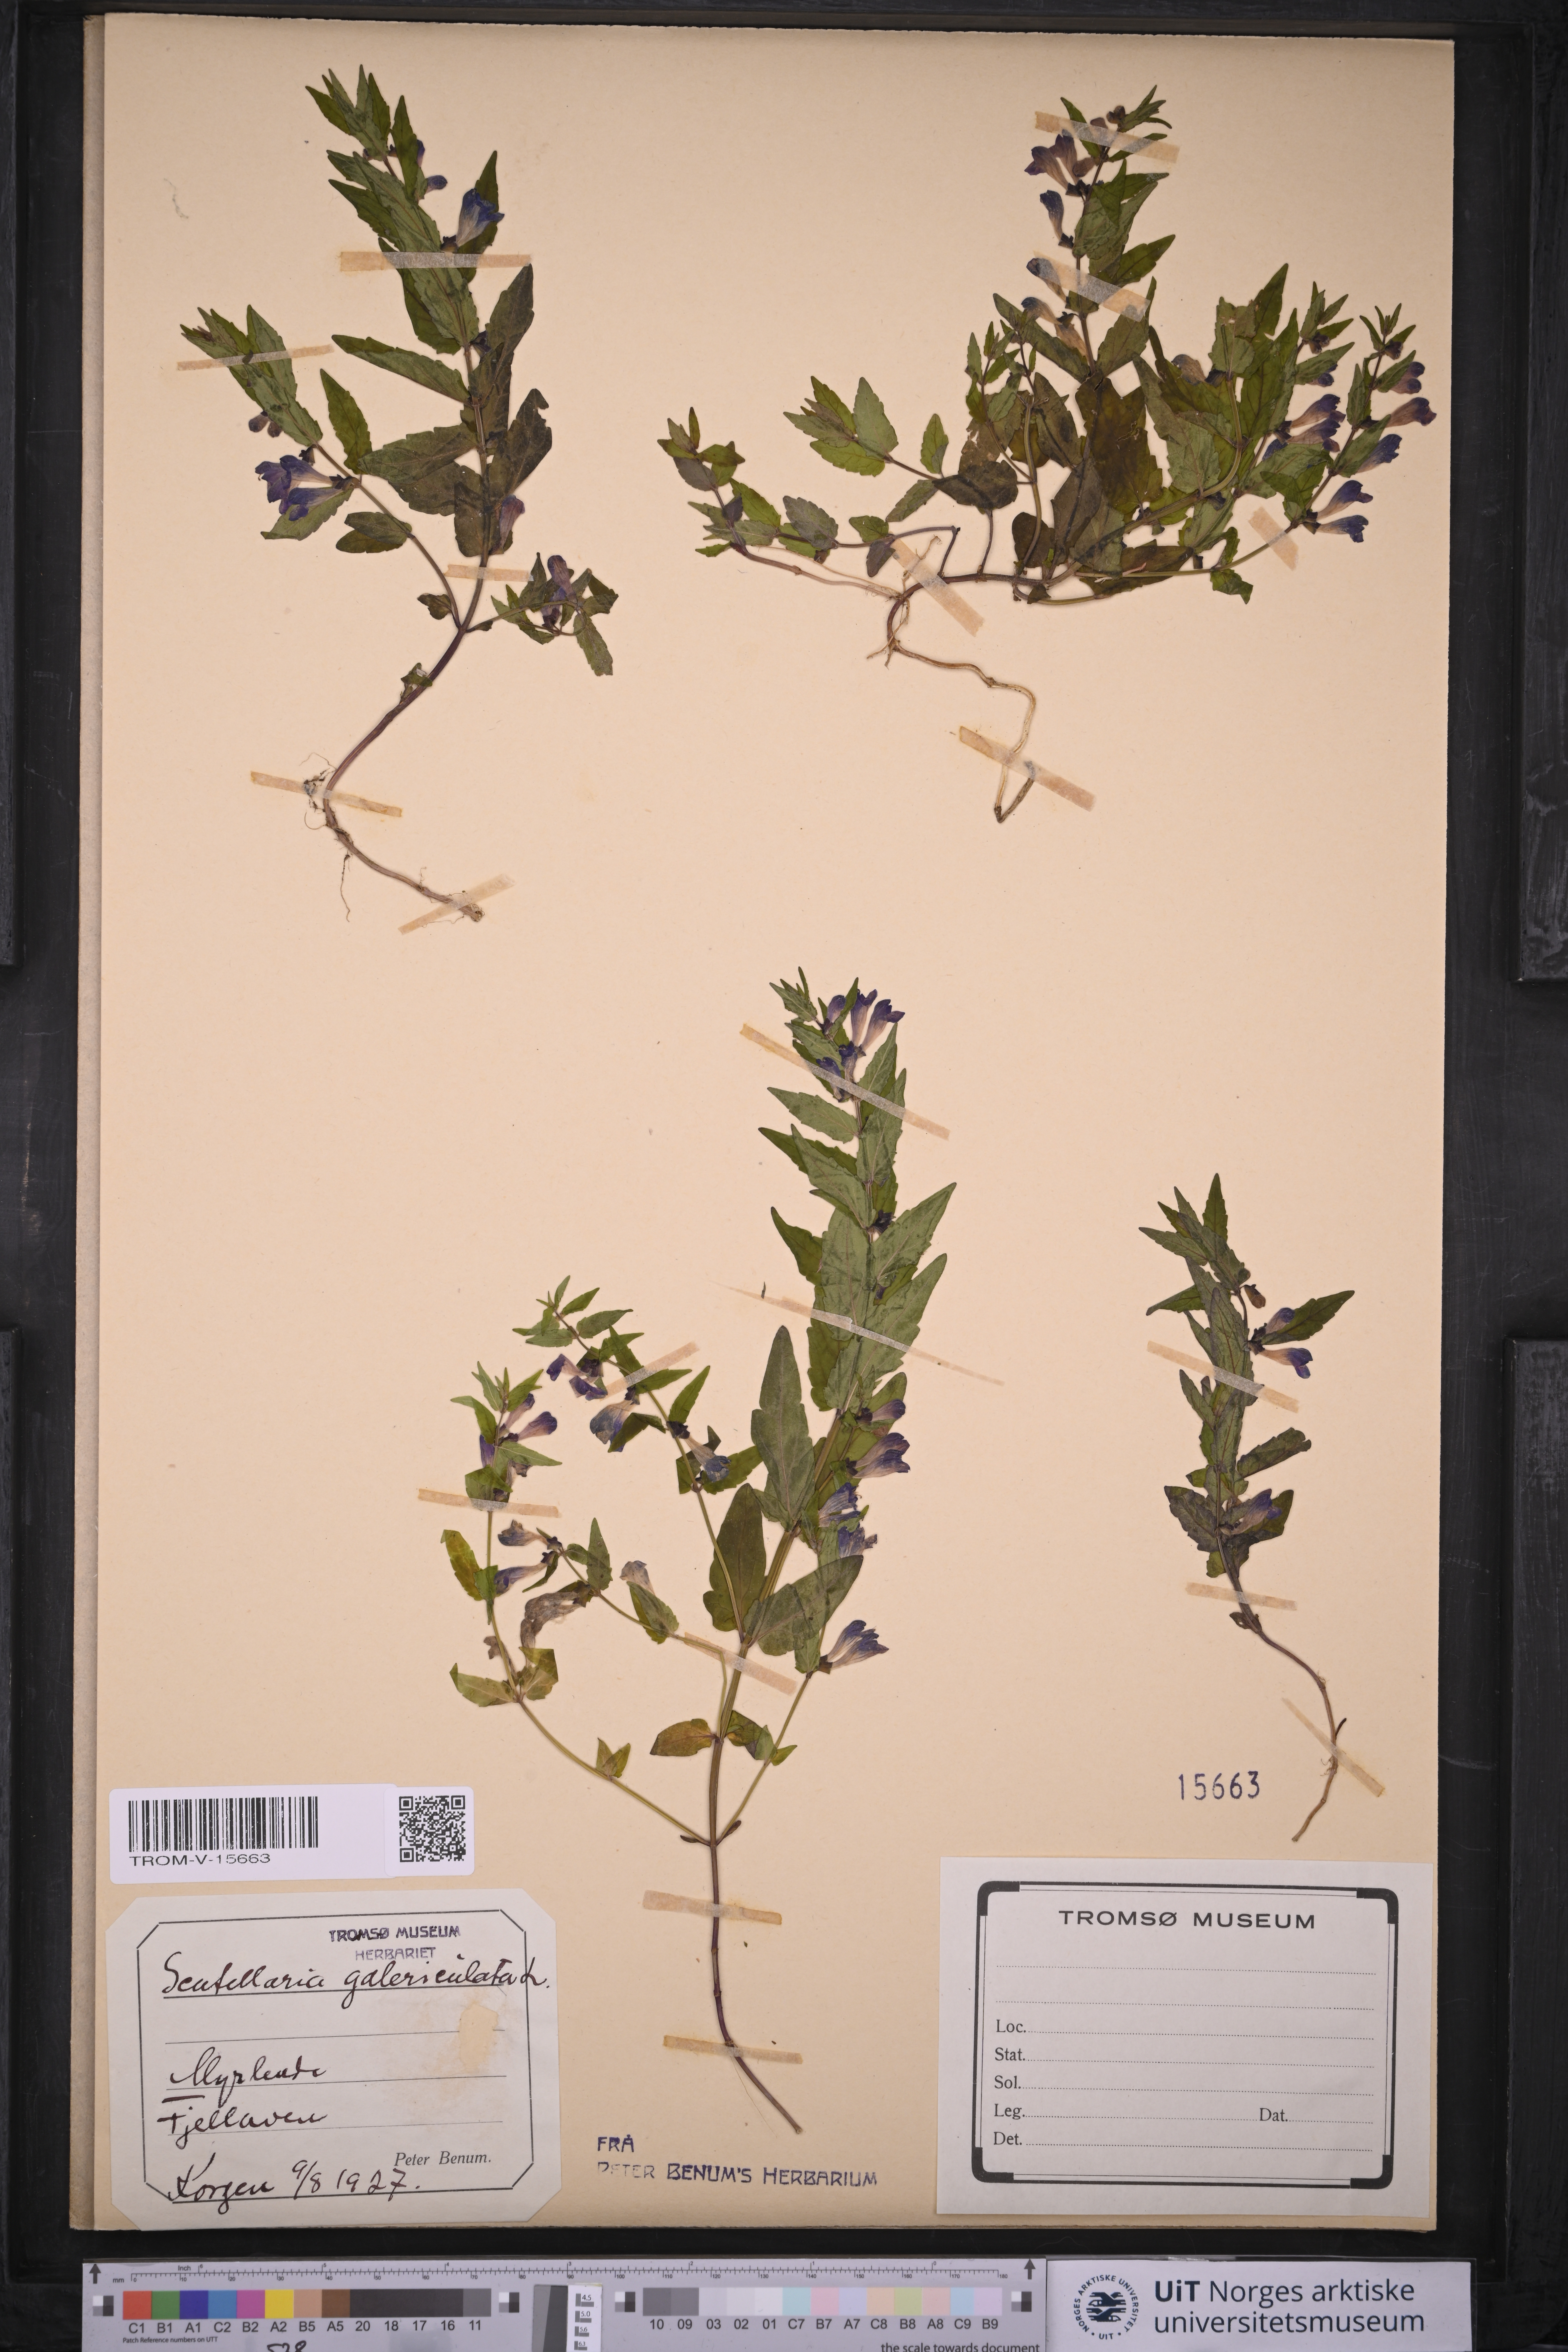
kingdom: Plantae
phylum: Tracheophyta
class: Magnoliopsida
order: Lamiales
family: Lamiaceae
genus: Scutellaria
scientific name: Scutellaria galericulata
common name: Skullcap
